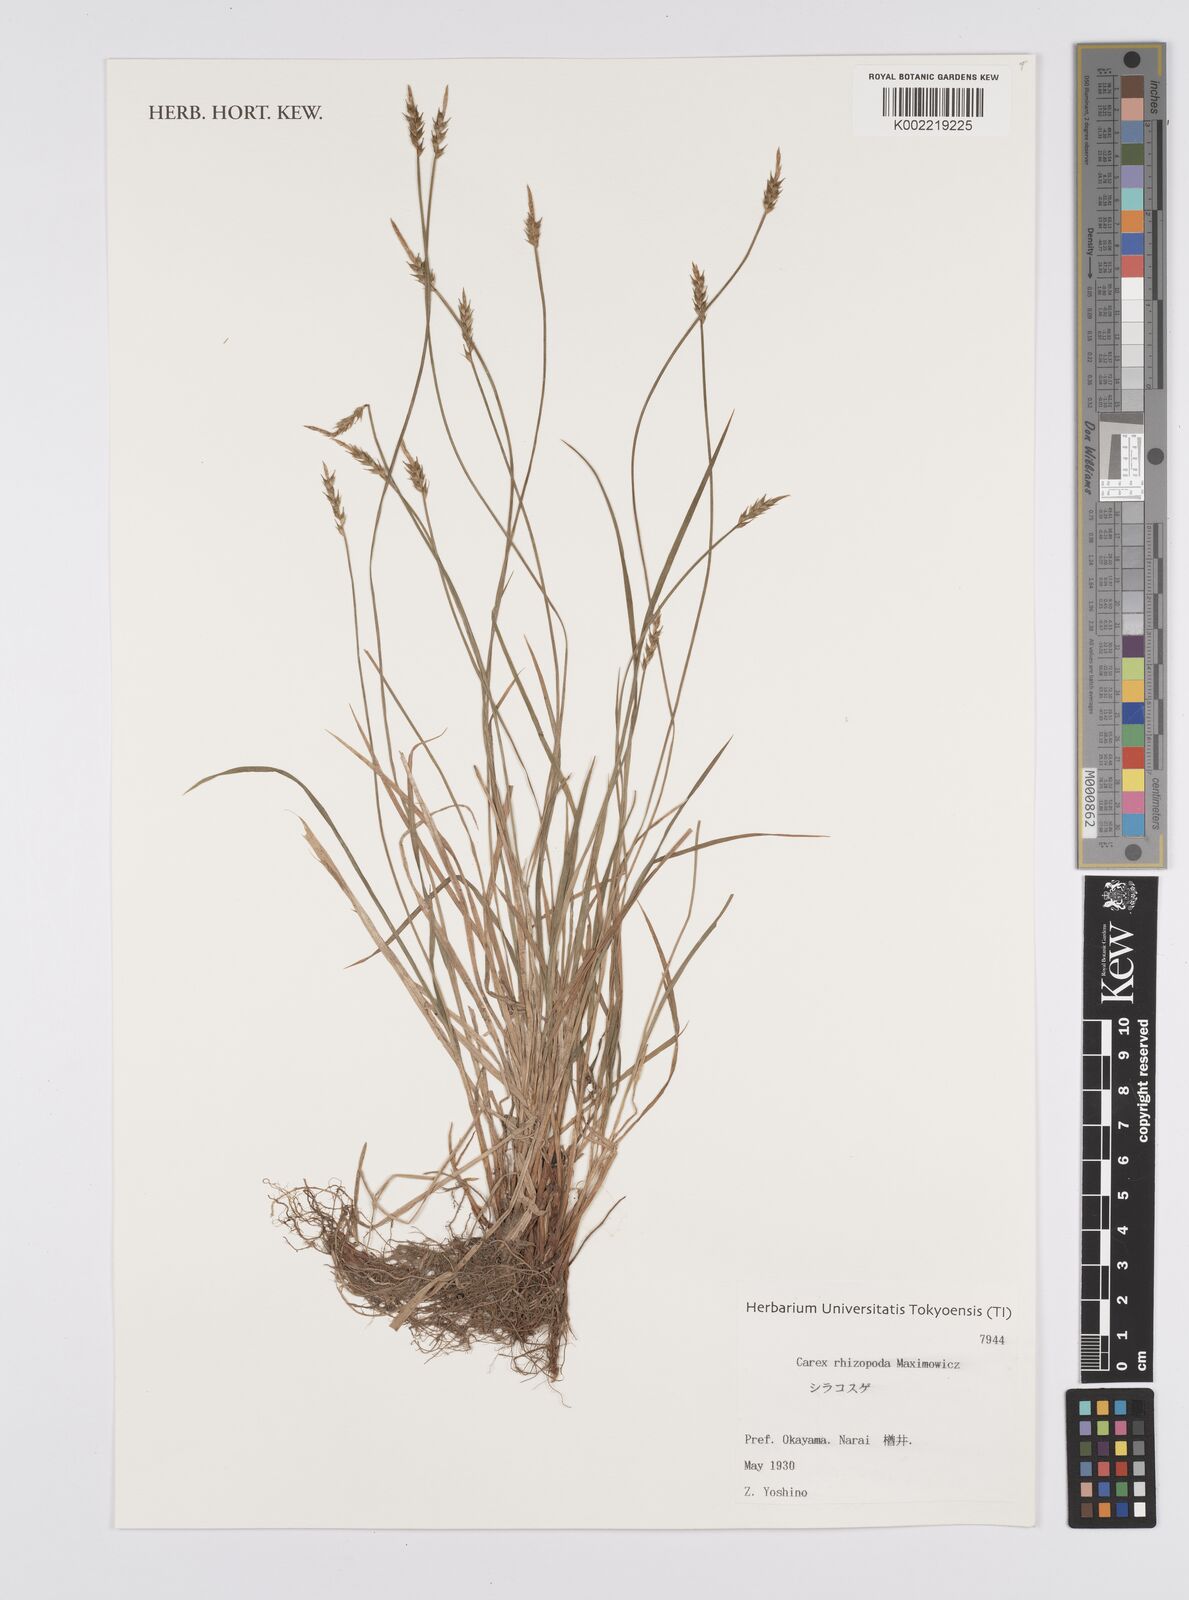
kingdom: Plantae
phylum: Tracheophyta
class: Liliopsida
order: Poales
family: Cyperaceae
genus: Carex
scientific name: Carex rhizopoda
